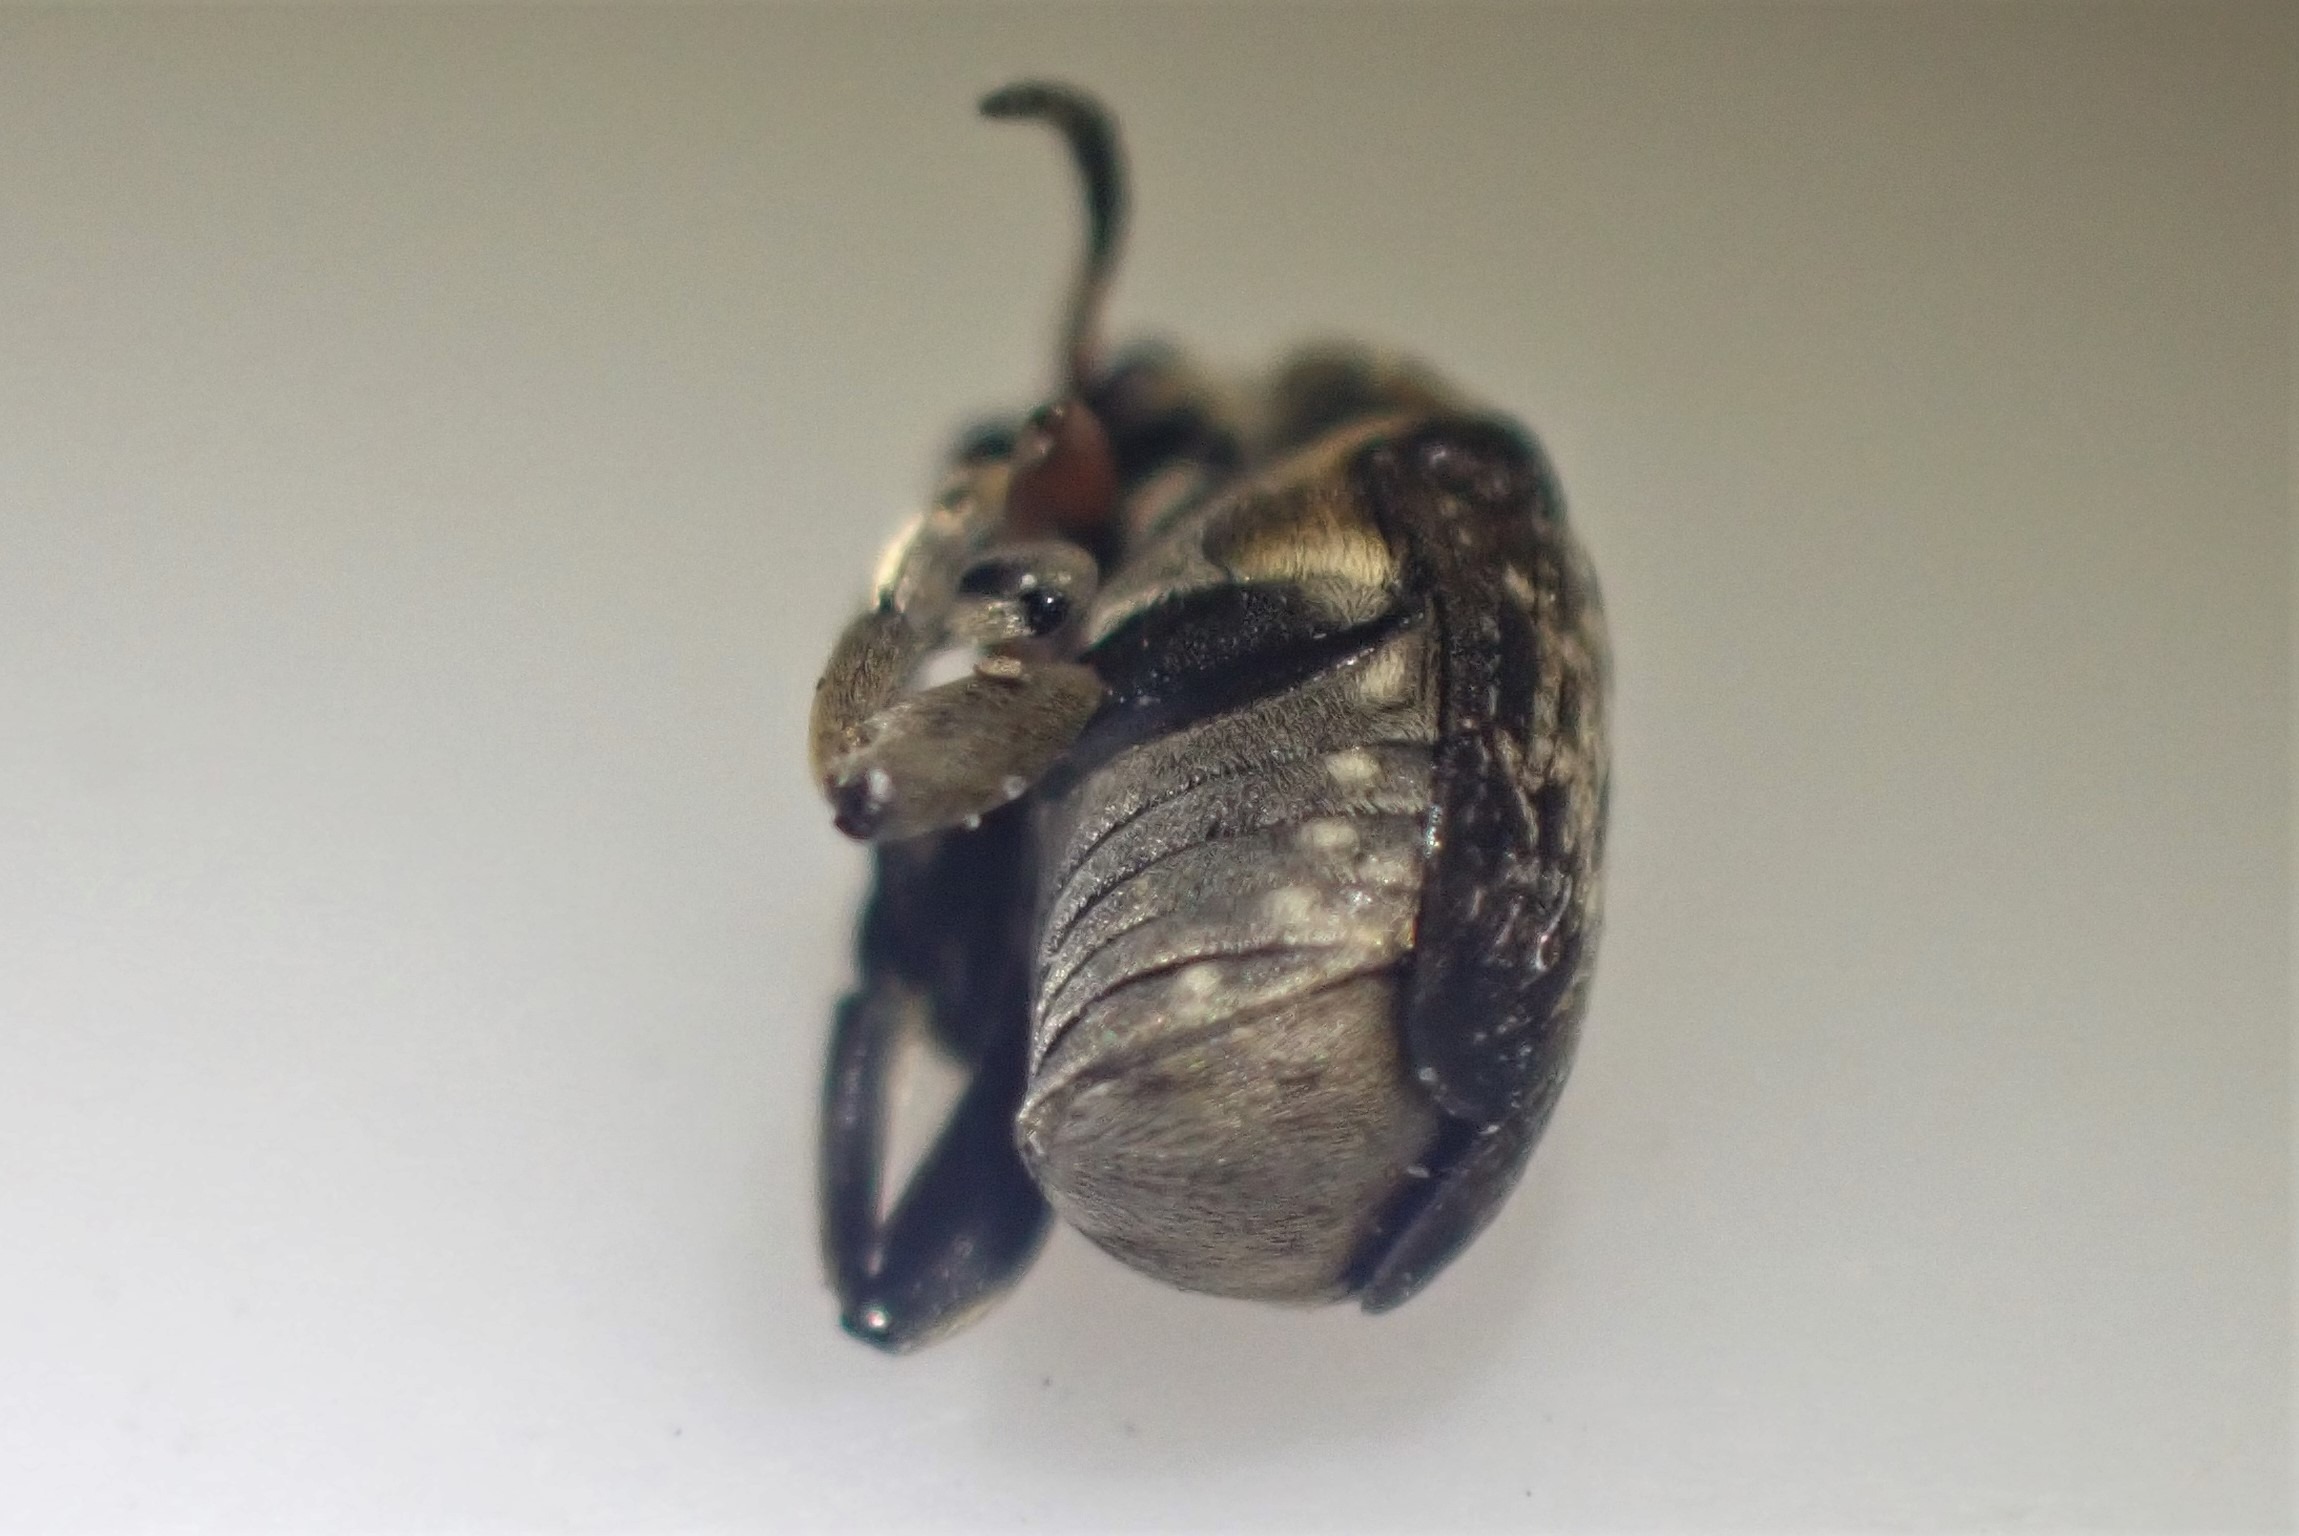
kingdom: Animalia
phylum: Arthropoda
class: Insecta
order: Coleoptera
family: Chrysomelidae
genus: Bruchus
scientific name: Bruchus rufimanus
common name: Hestebønnebille
